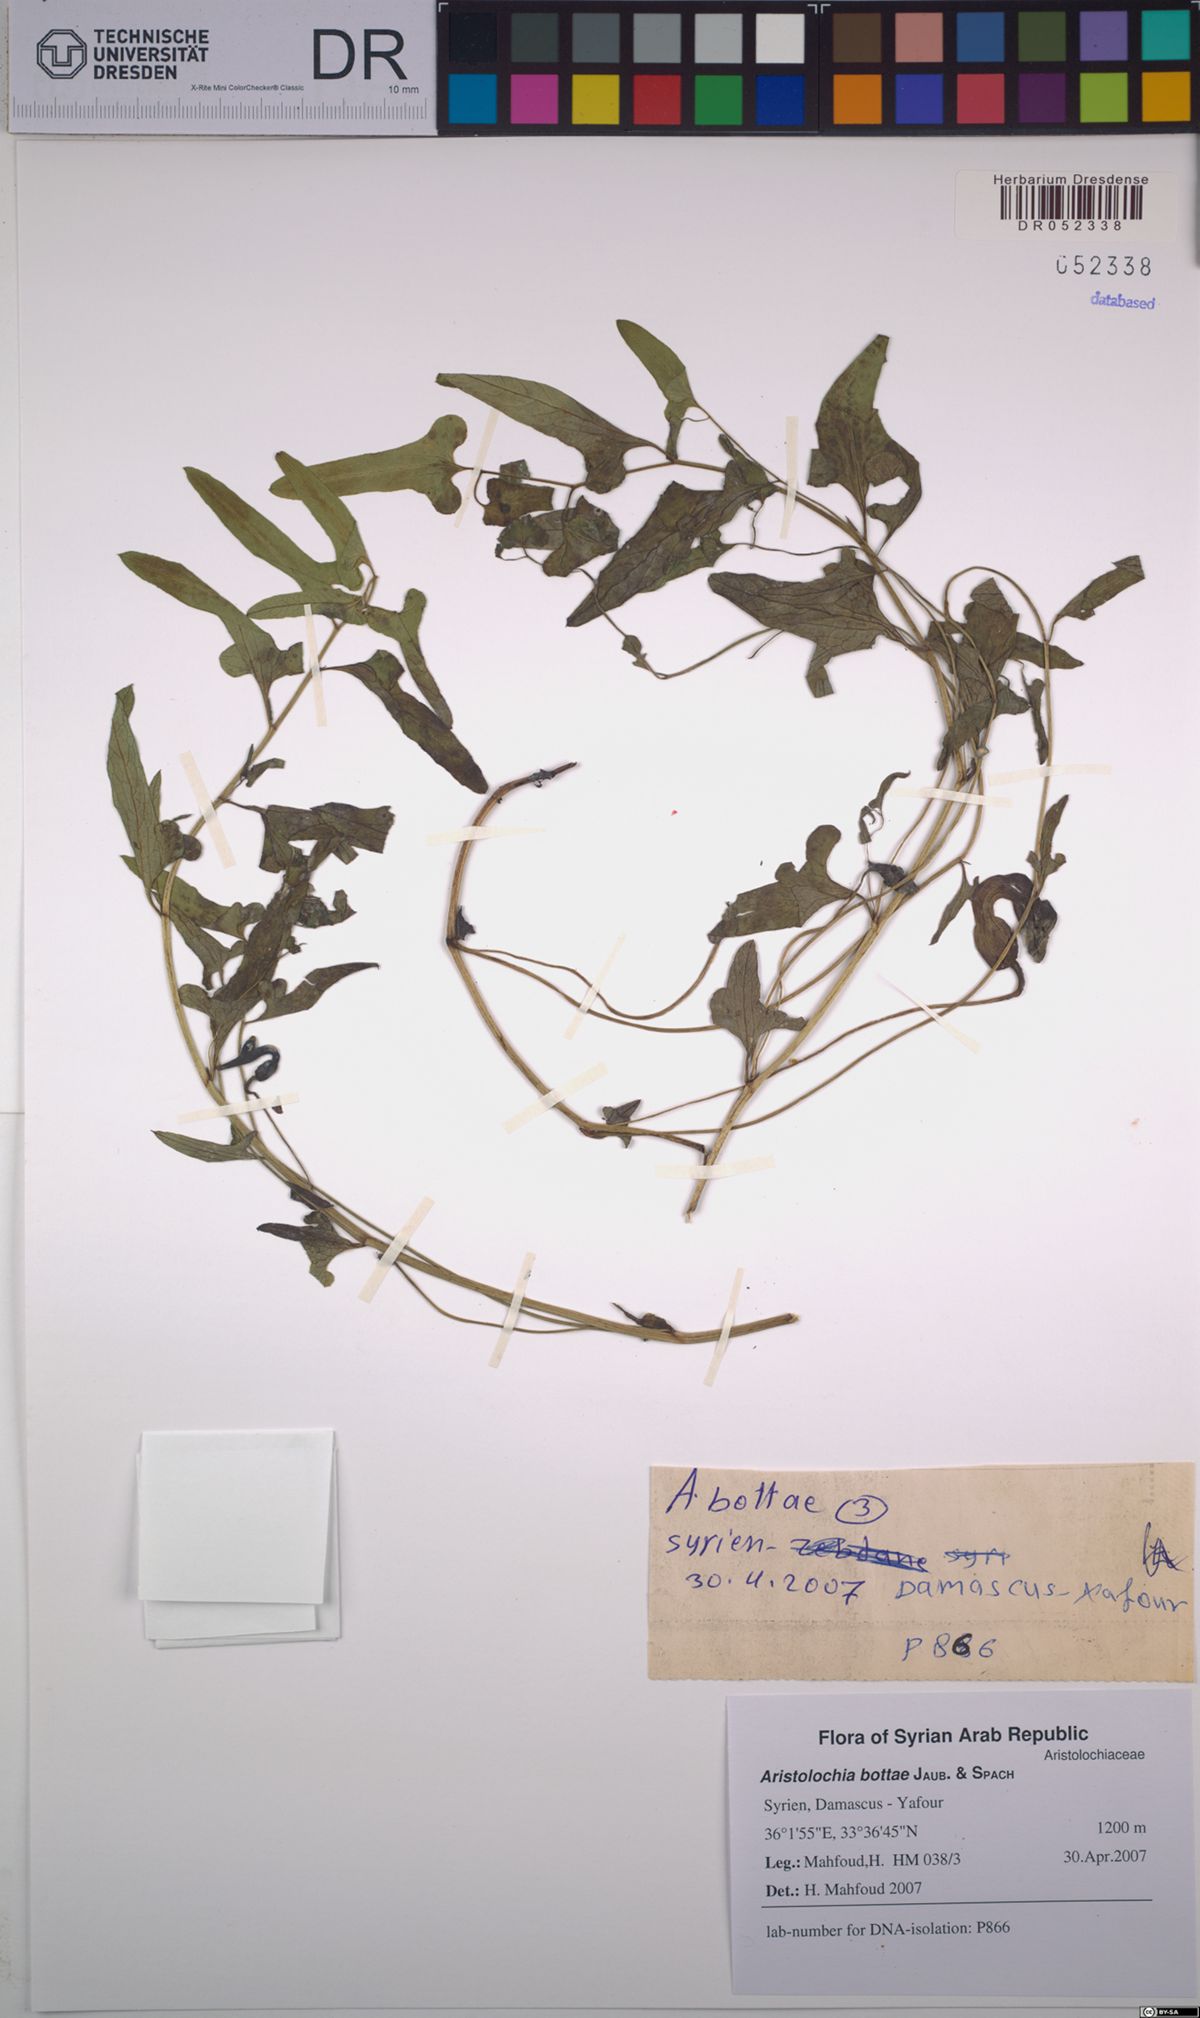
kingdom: Plantae
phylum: Tracheophyta
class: Magnoliopsida
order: Piperales
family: Aristolochiaceae
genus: Aristolochia
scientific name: Aristolochia bottae
